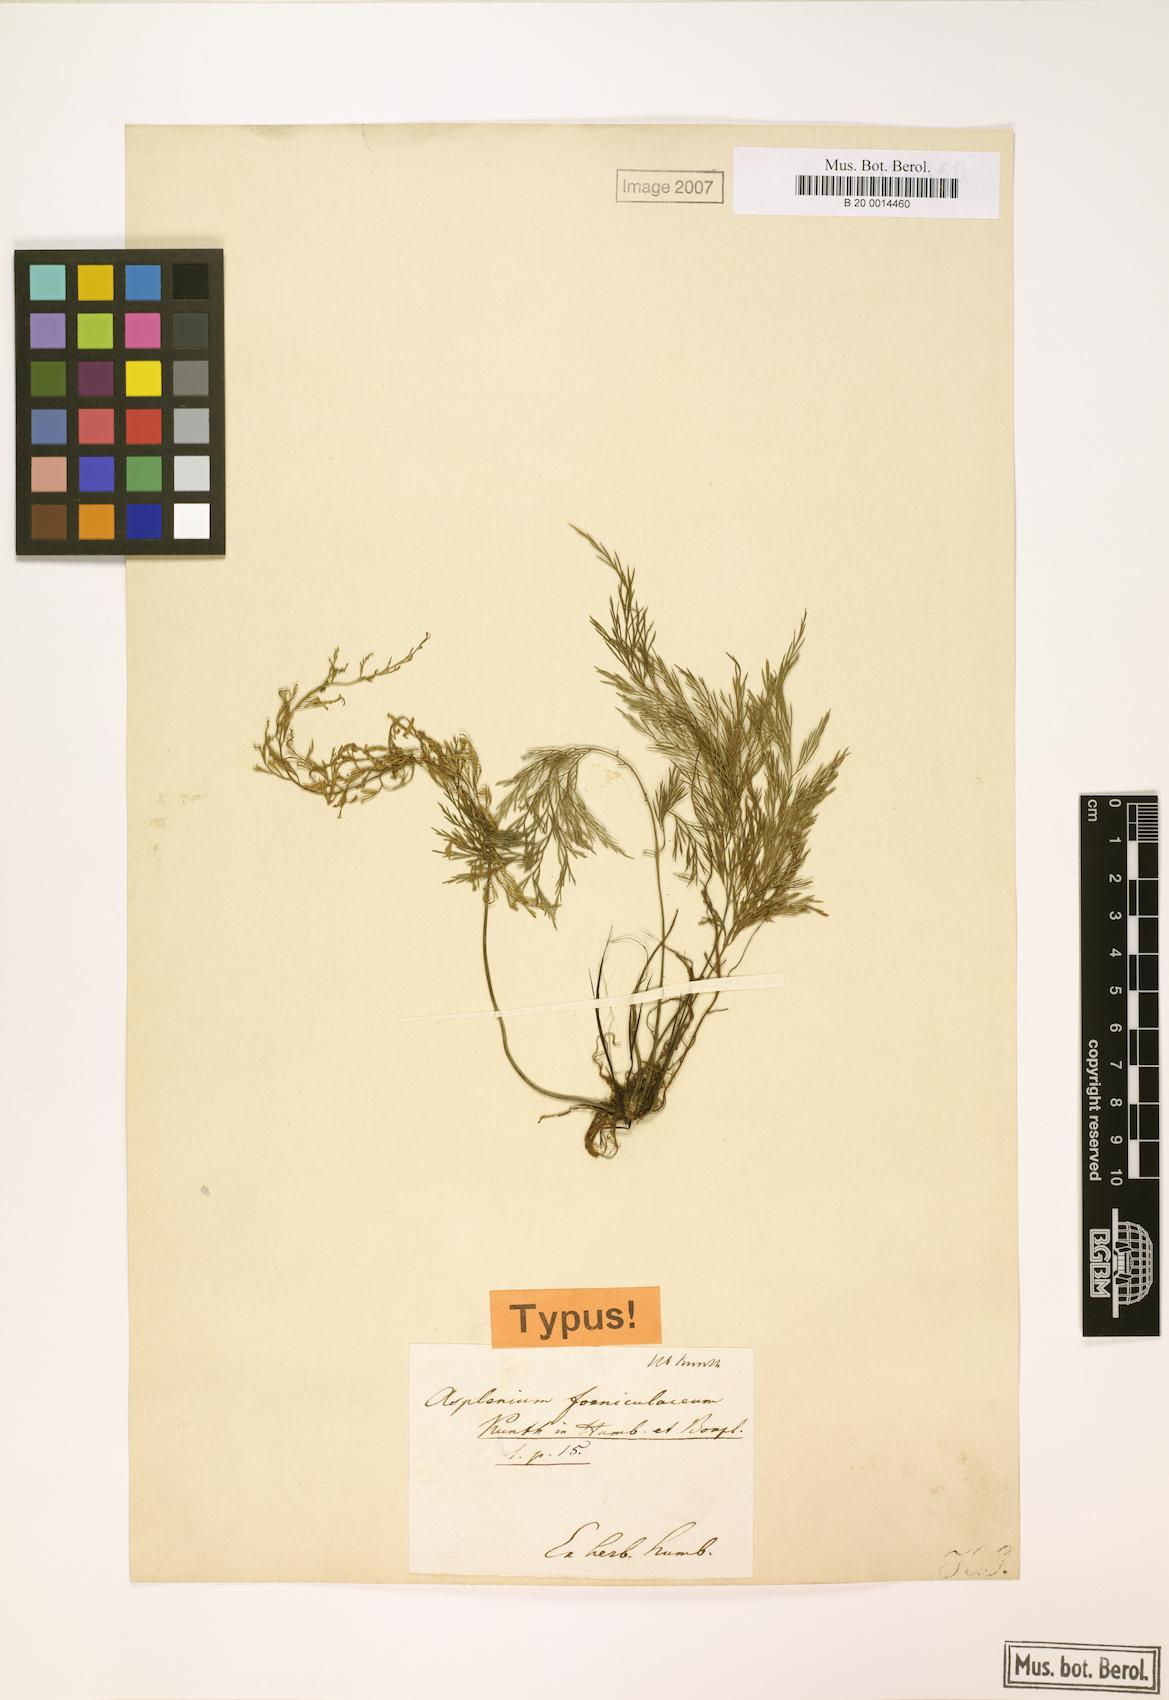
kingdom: Plantae
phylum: Tracheophyta
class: Polypodiopsida
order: Polypodiales
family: Aspleniaceae
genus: Asplenium
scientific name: Asplenium fragrans
